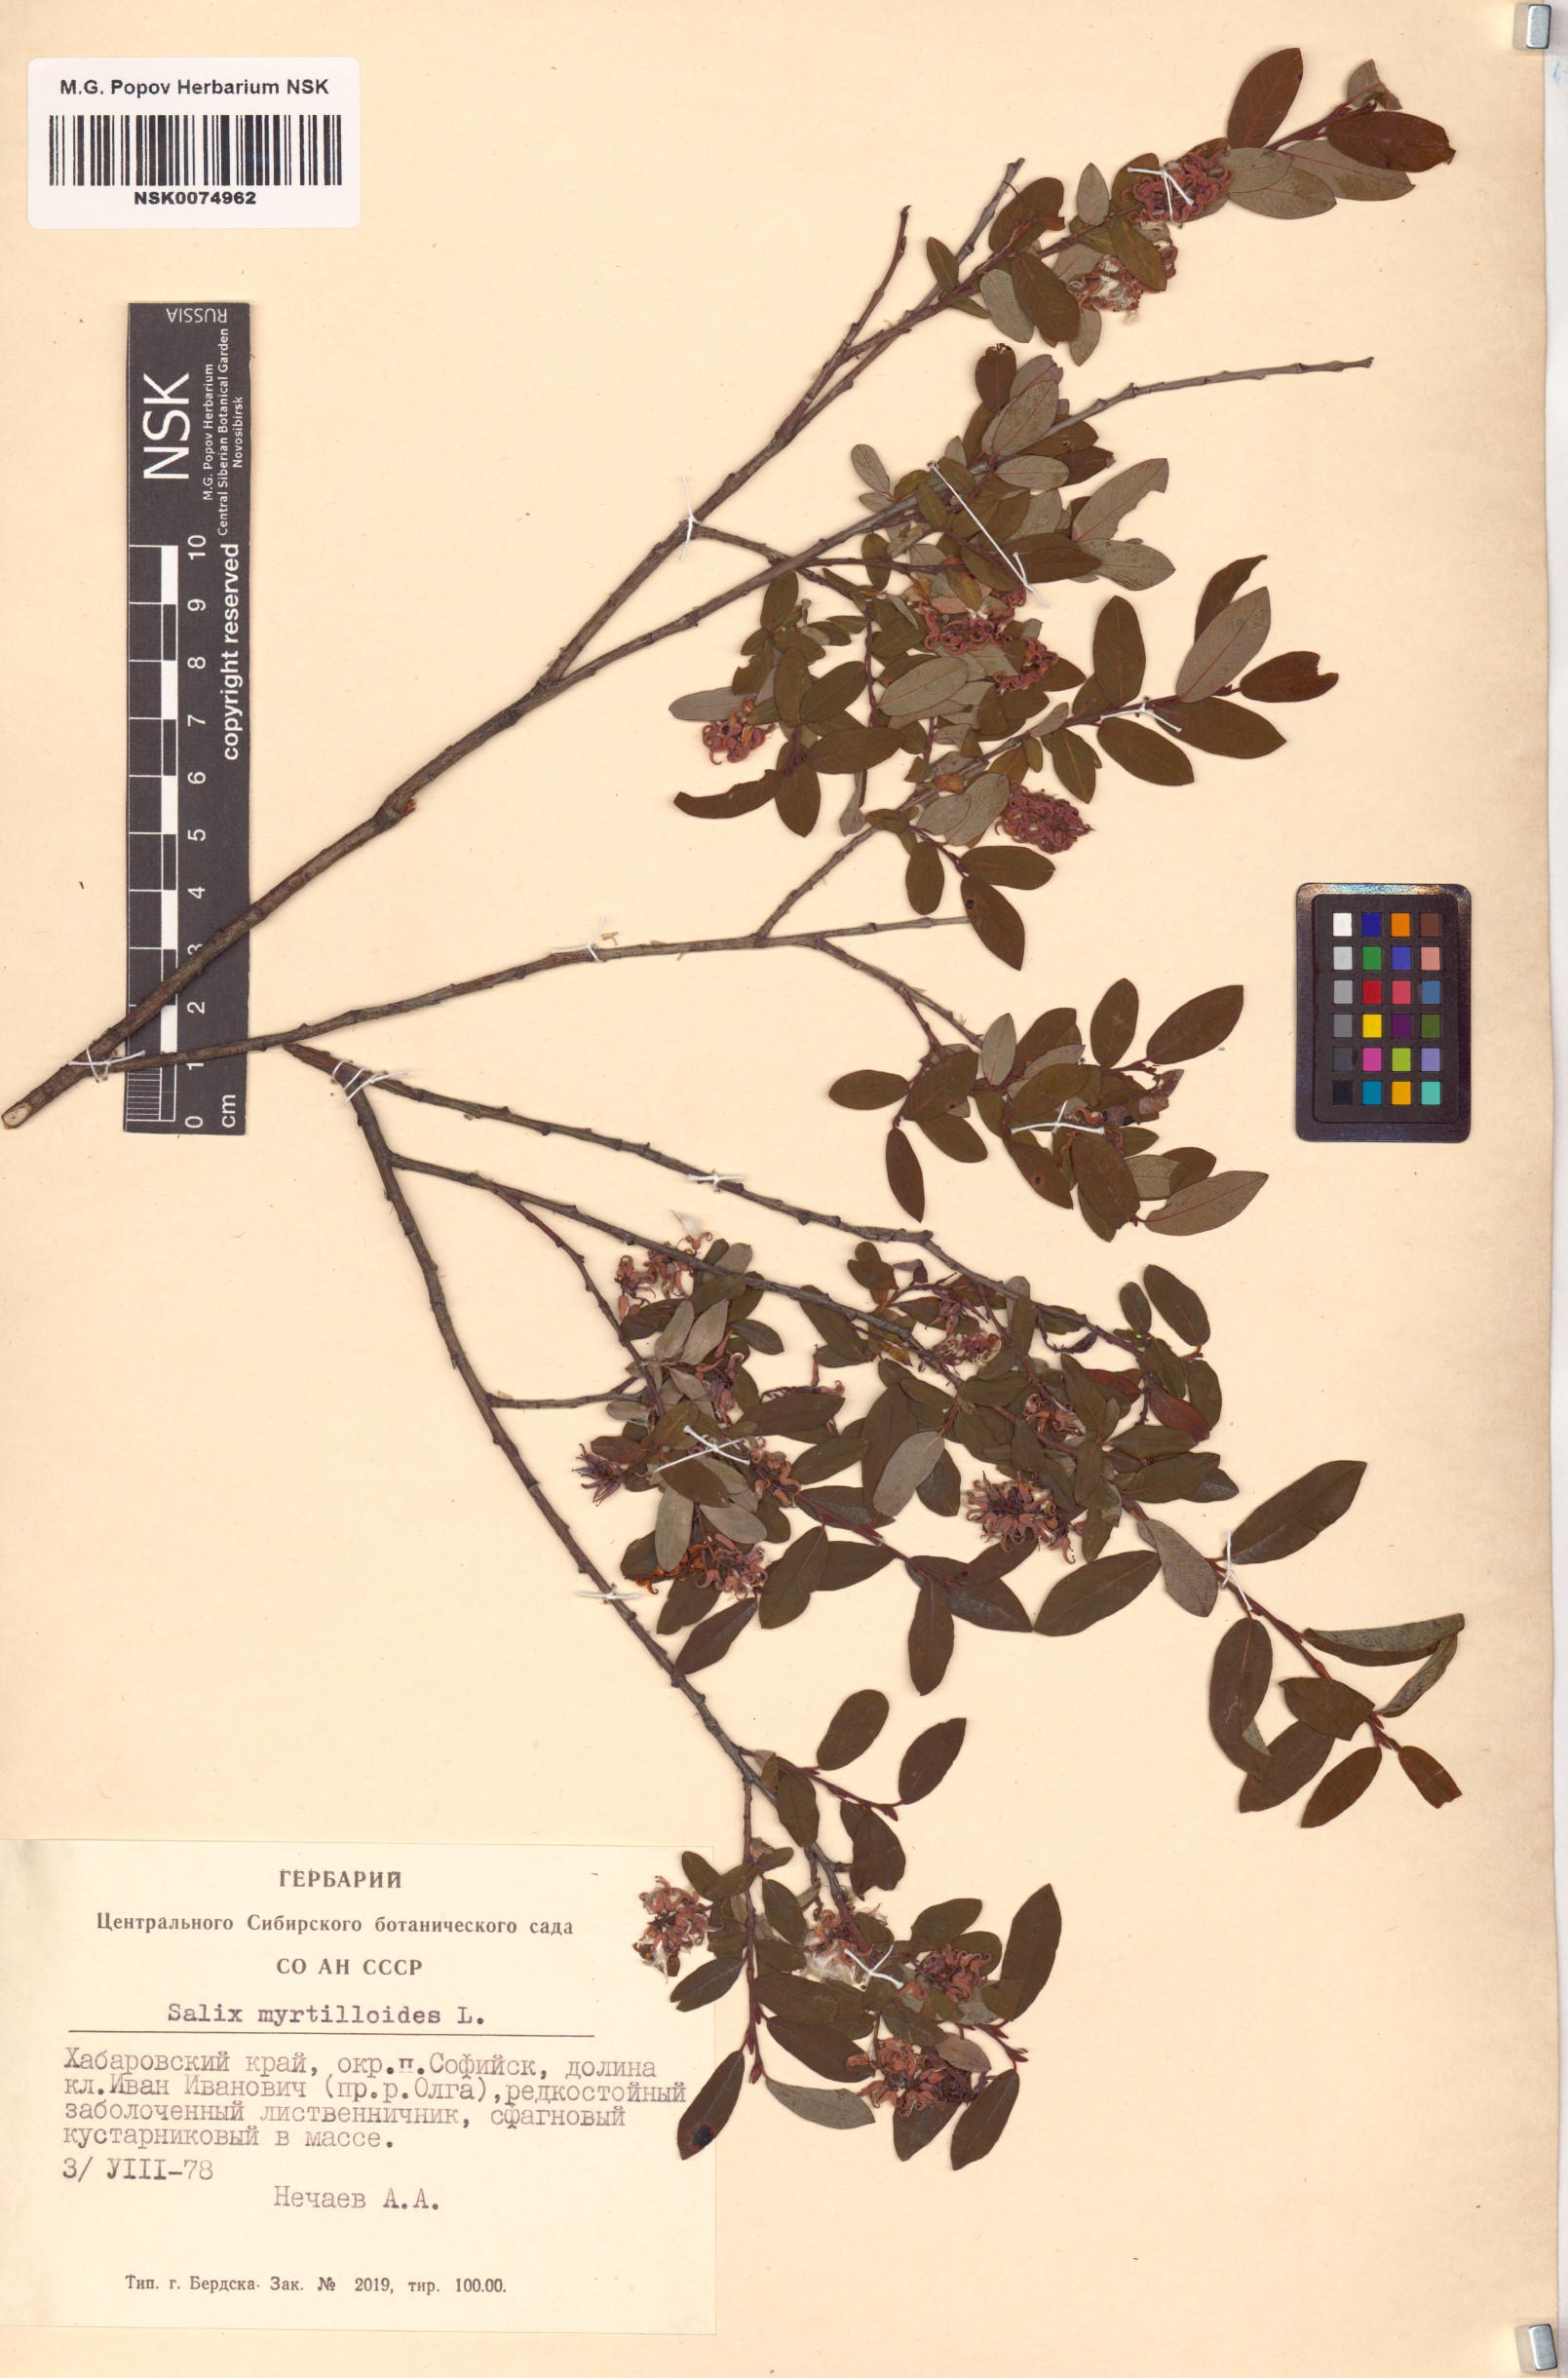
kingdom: Plantae
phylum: Tracheophyta
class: Magnoliopsida
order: Malpighiales
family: Salicaceae
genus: Salix
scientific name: Salix myrtilloides
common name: Myrtle-leaved willow
